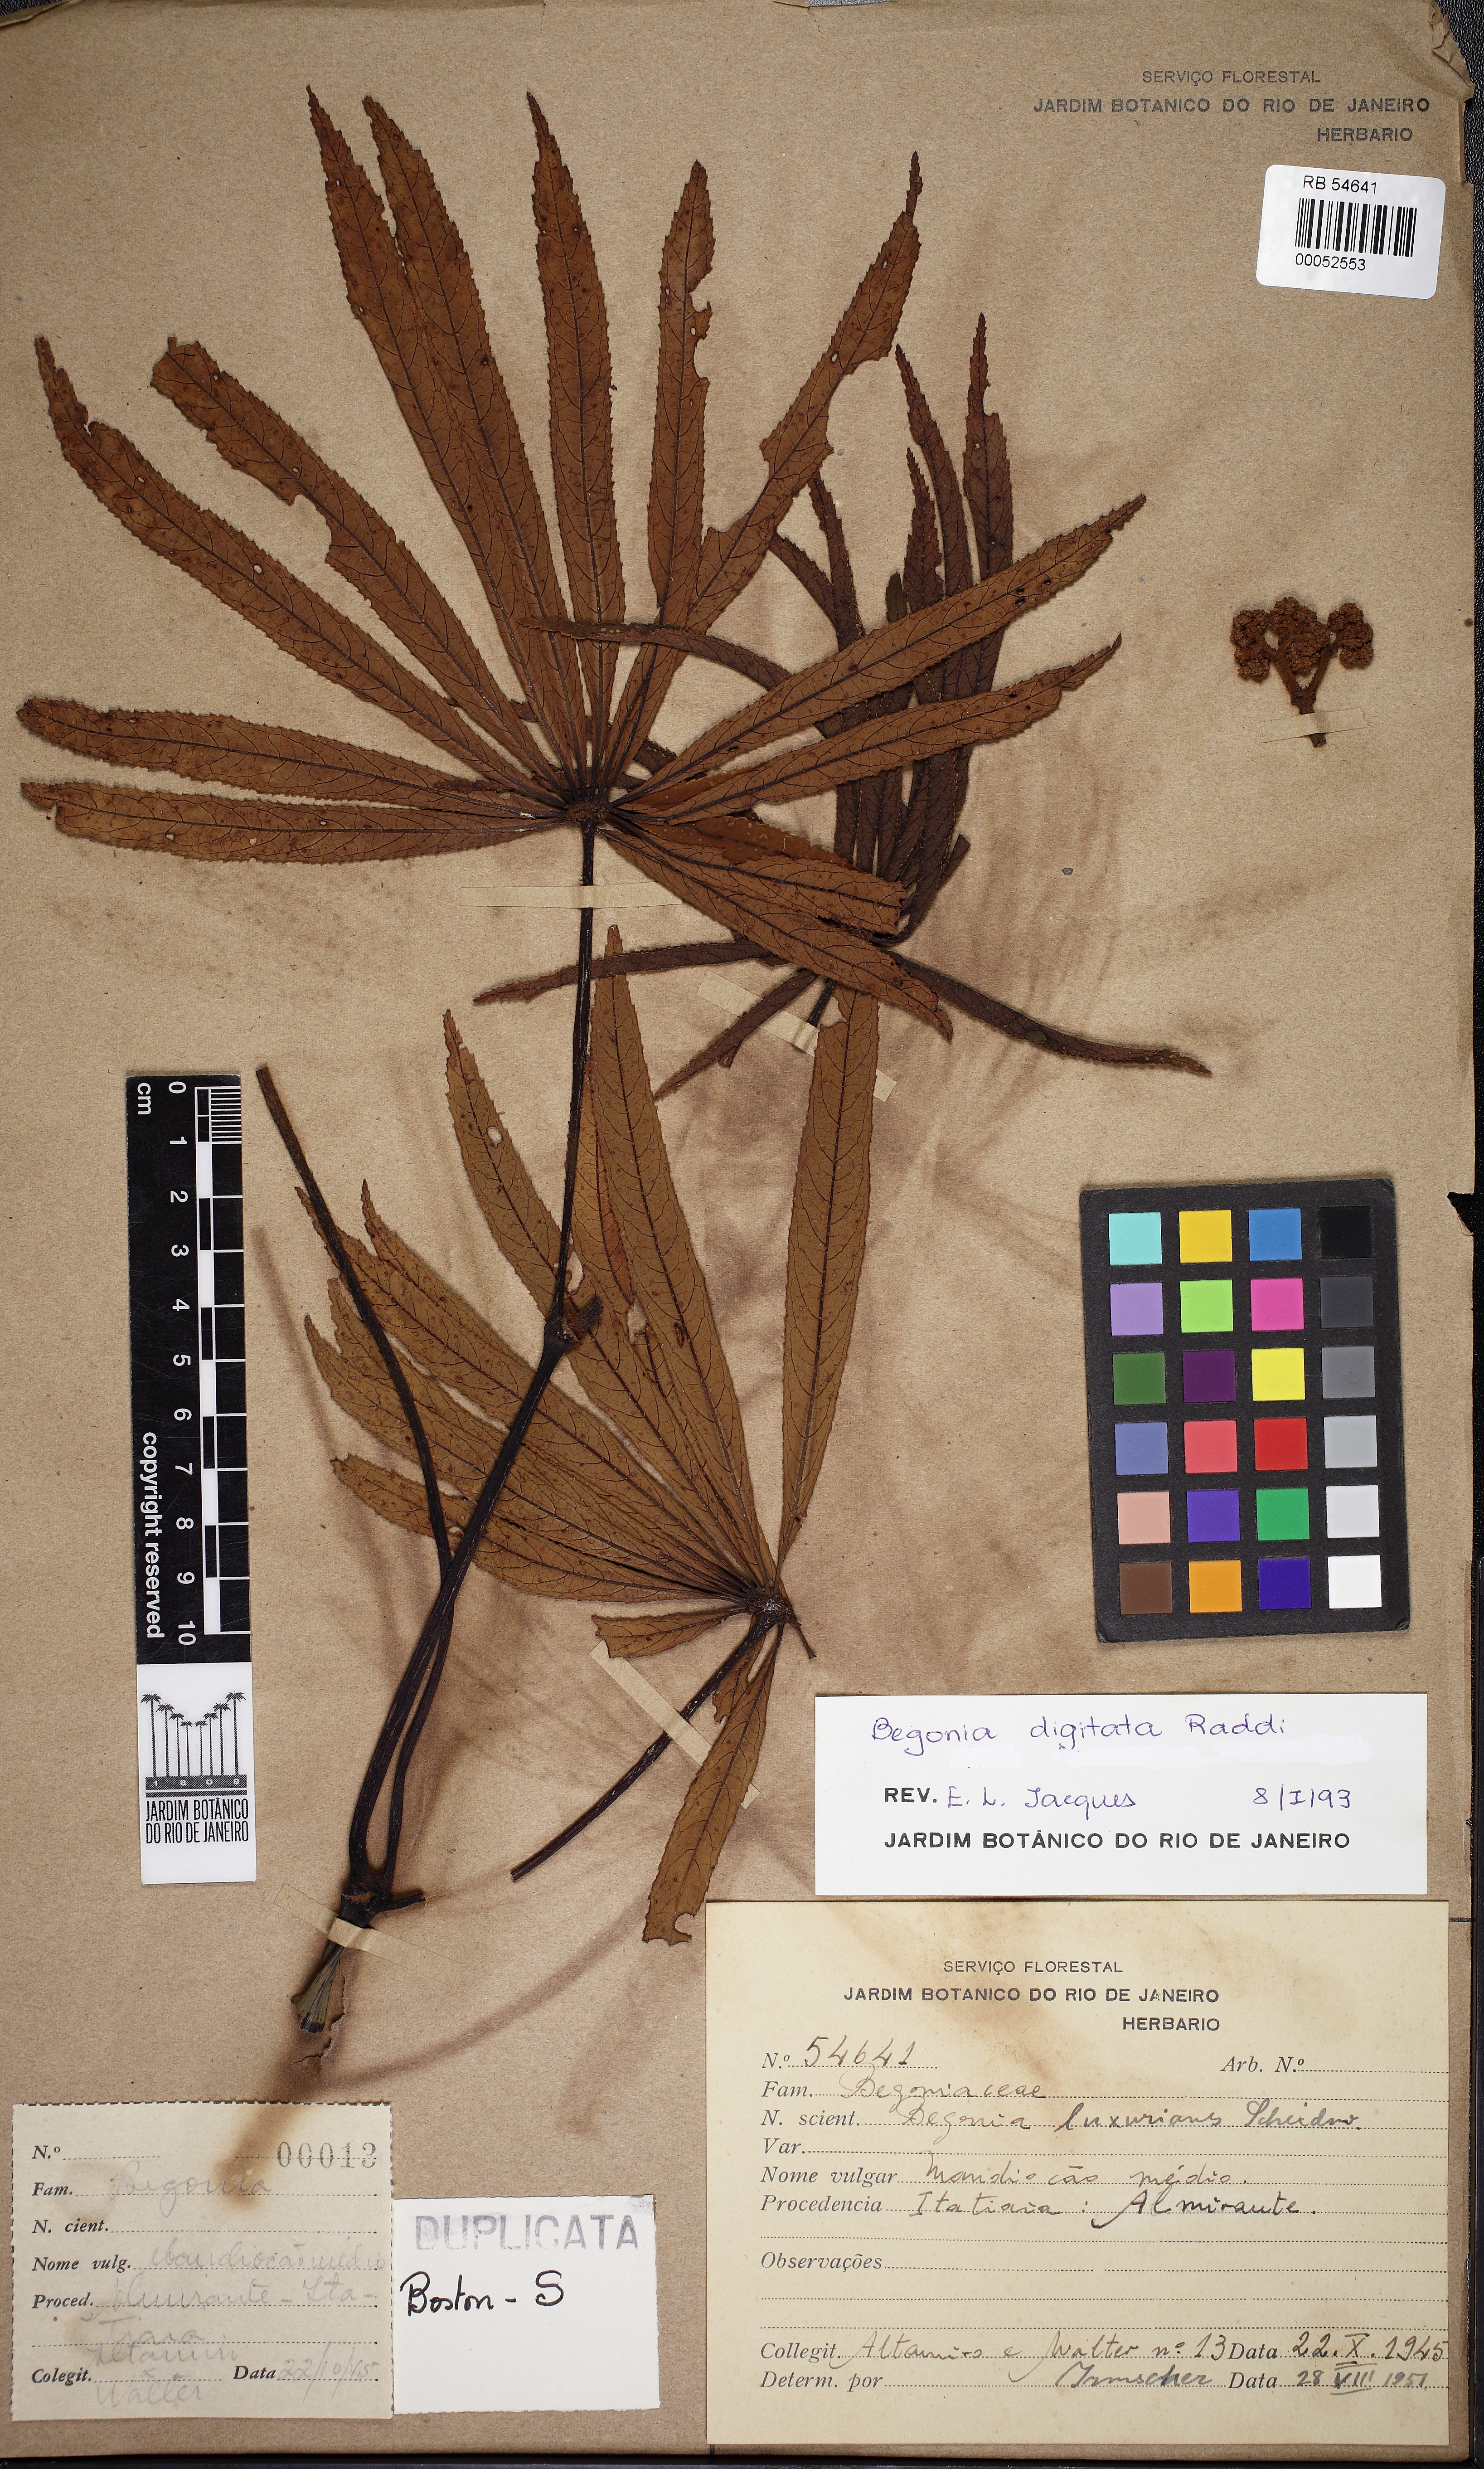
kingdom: Plantae
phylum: Tracheophyta
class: Magnoliopsida
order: Cucurbitales
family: Begoniaceae
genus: Begonia
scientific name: Begonia luxurians
